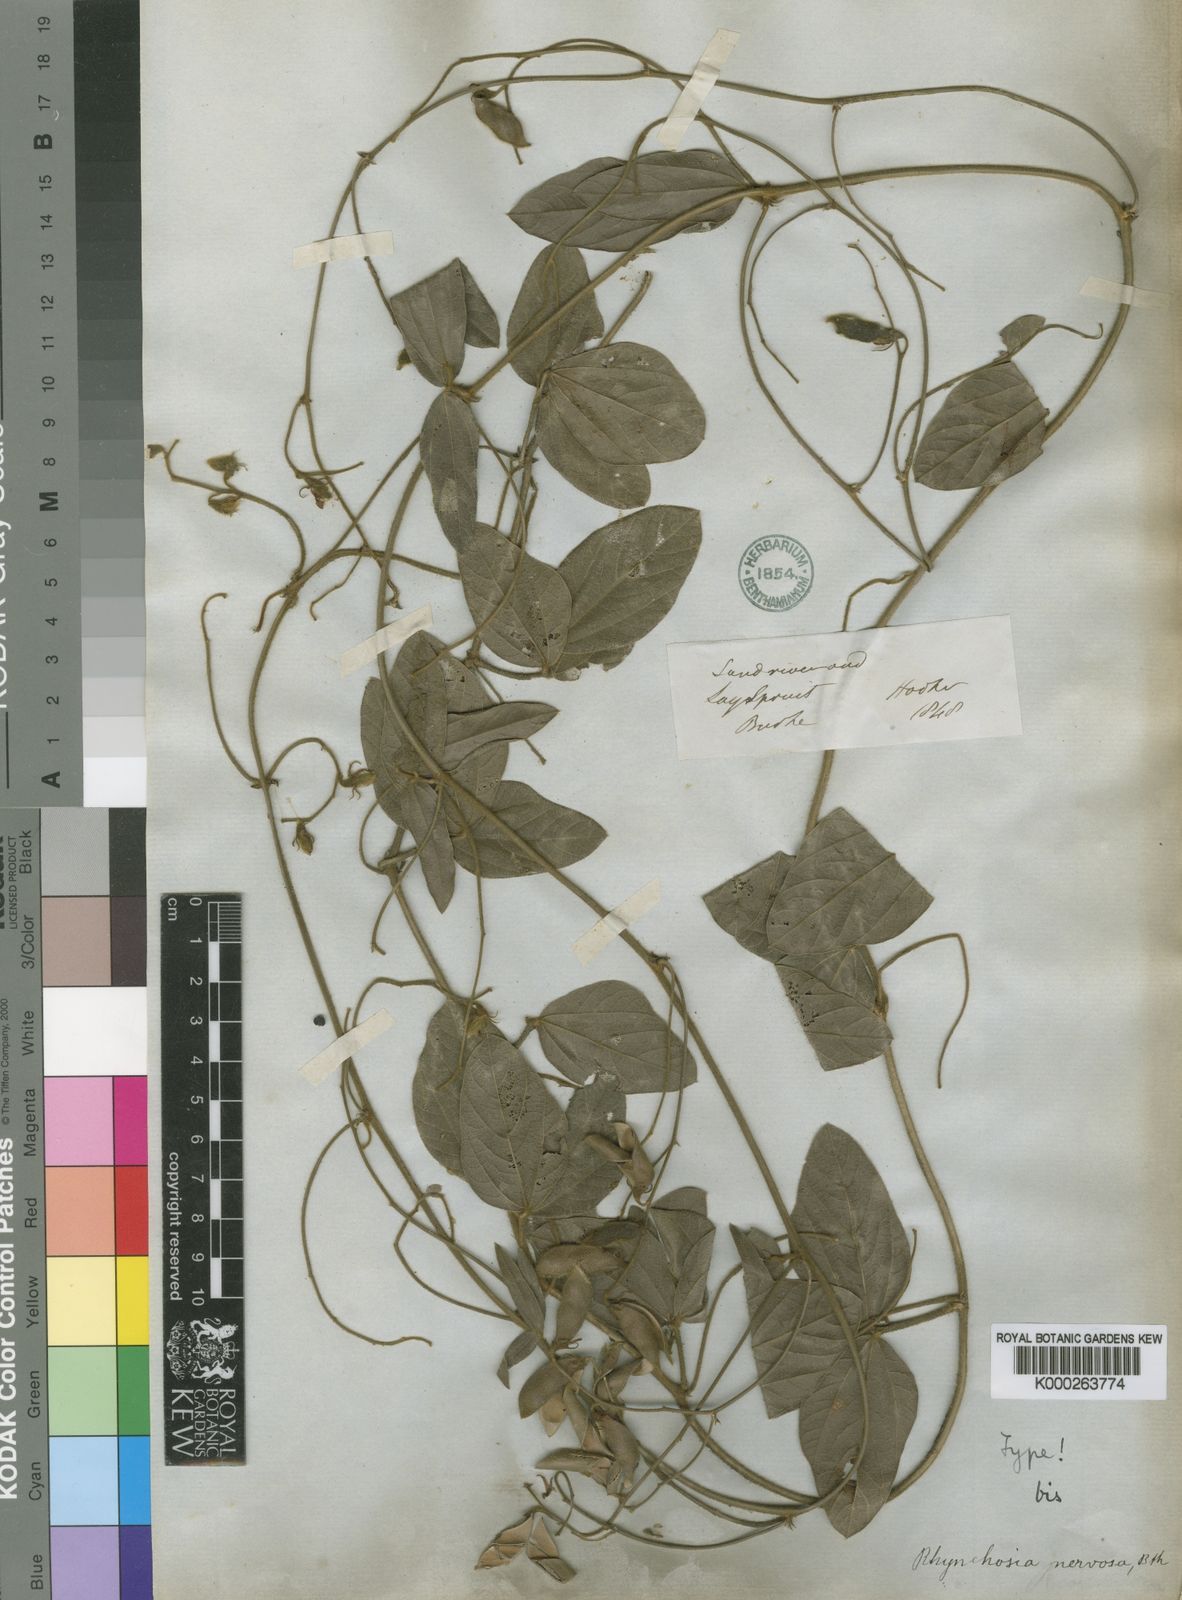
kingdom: Plantae
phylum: Tracheophyta
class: Magnoliopsida
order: Fabales
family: Fabaceae
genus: Rhynchosia
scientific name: Rhynchosia nervosa
